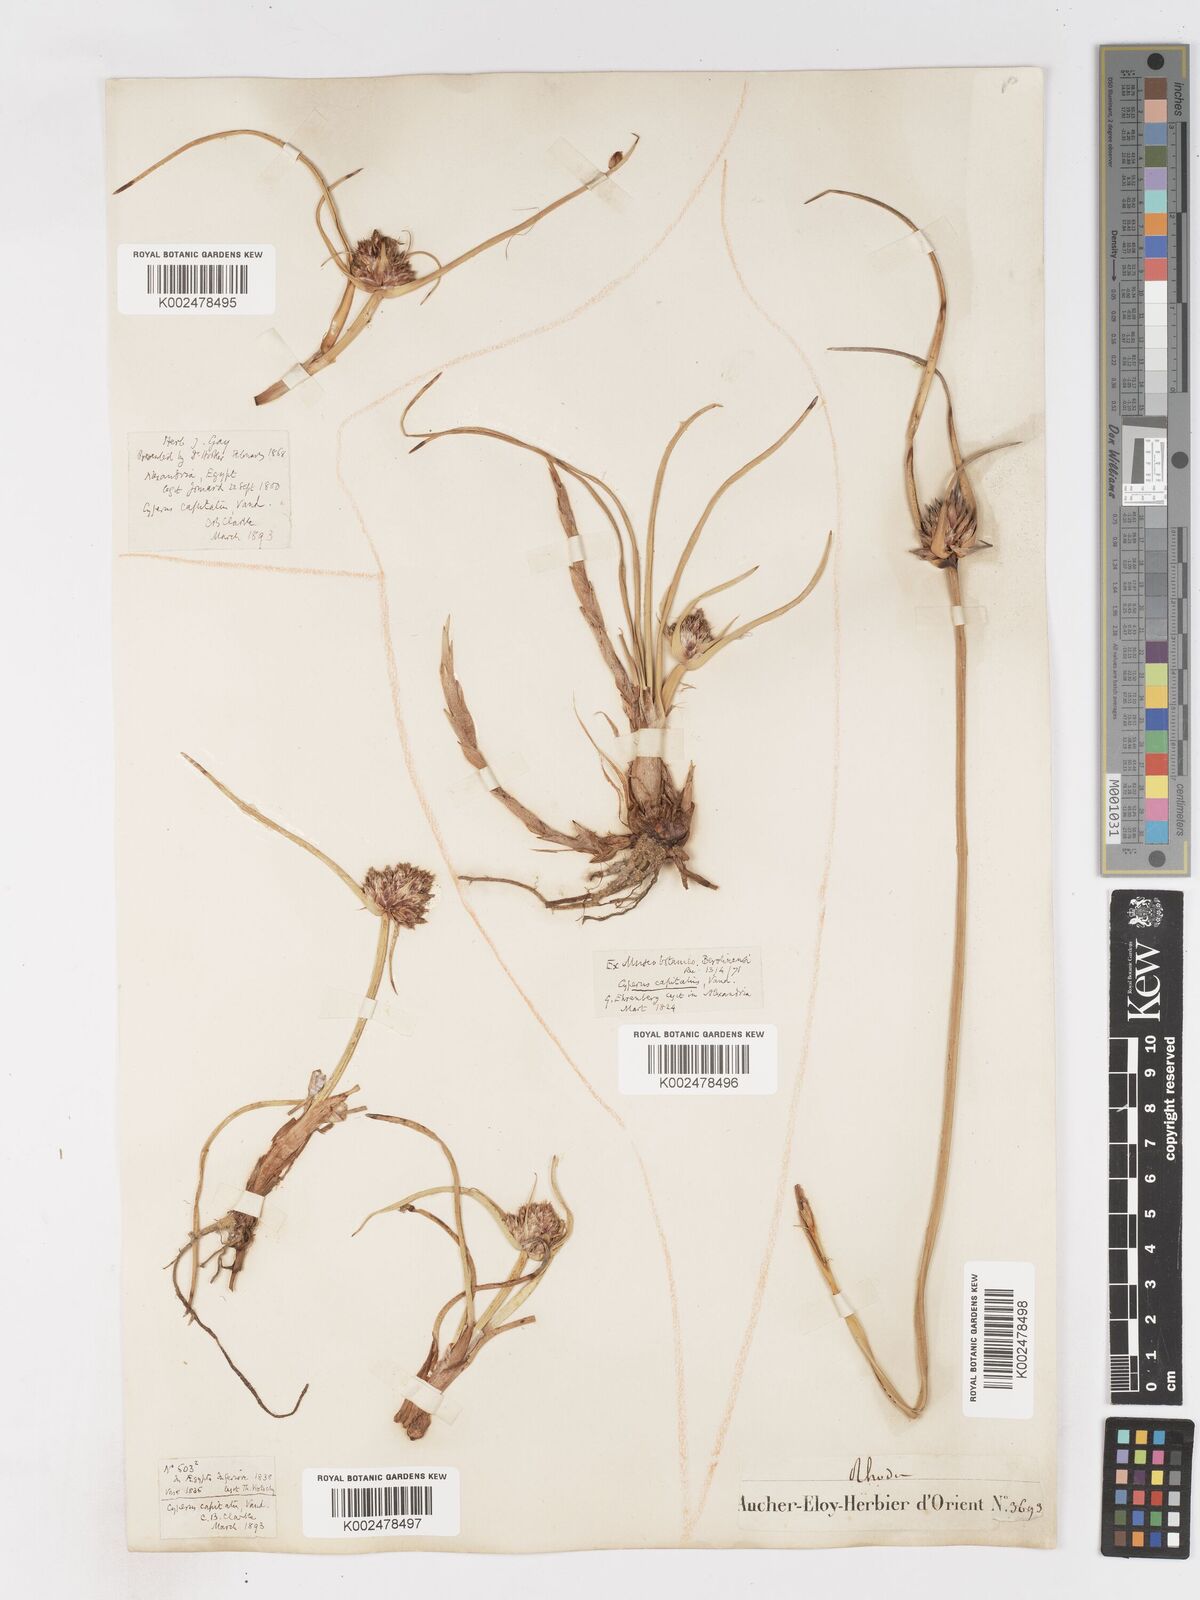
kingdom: Plantae
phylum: Tracheophyta
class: Liliopsida
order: Poales
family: Cyperaceae
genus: Cyperus
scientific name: Cyperus capitatus
